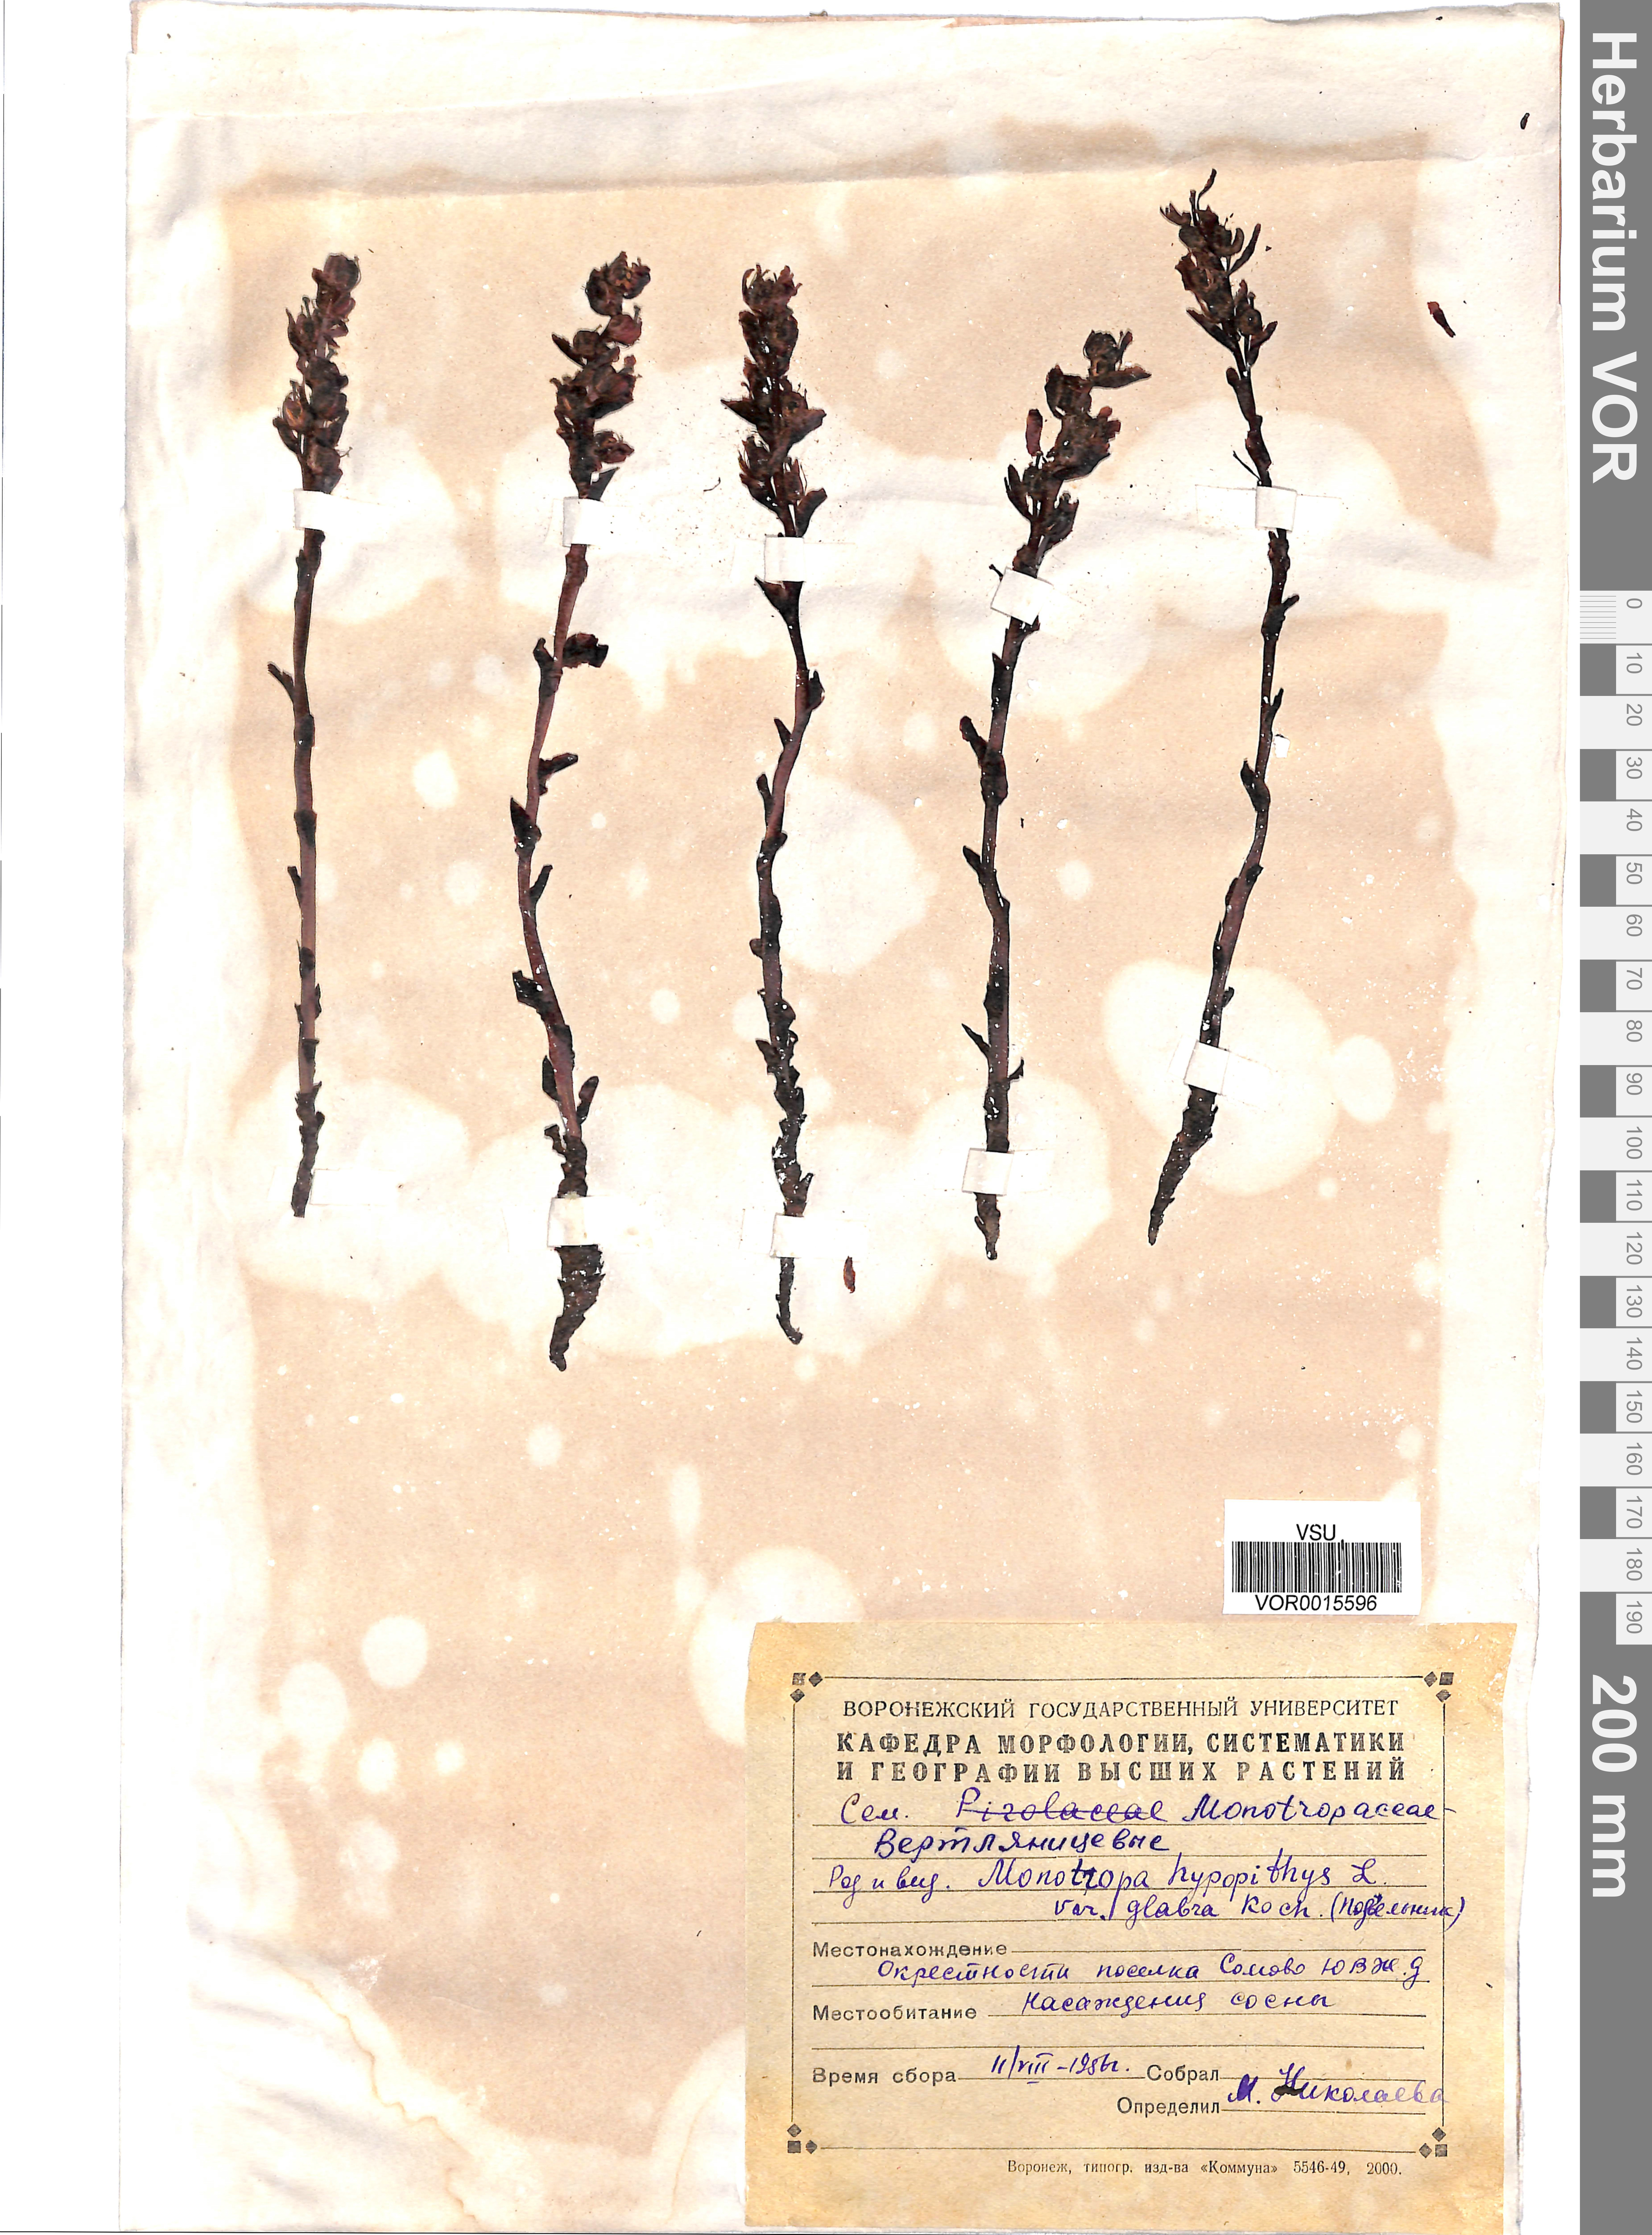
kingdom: Plantae
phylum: Tracheophyta
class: Magnoliopsida
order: Ericales
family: Ericaceae
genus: Hypopitys
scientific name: Hypopitys monotropa
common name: Yellow bird's-nest
